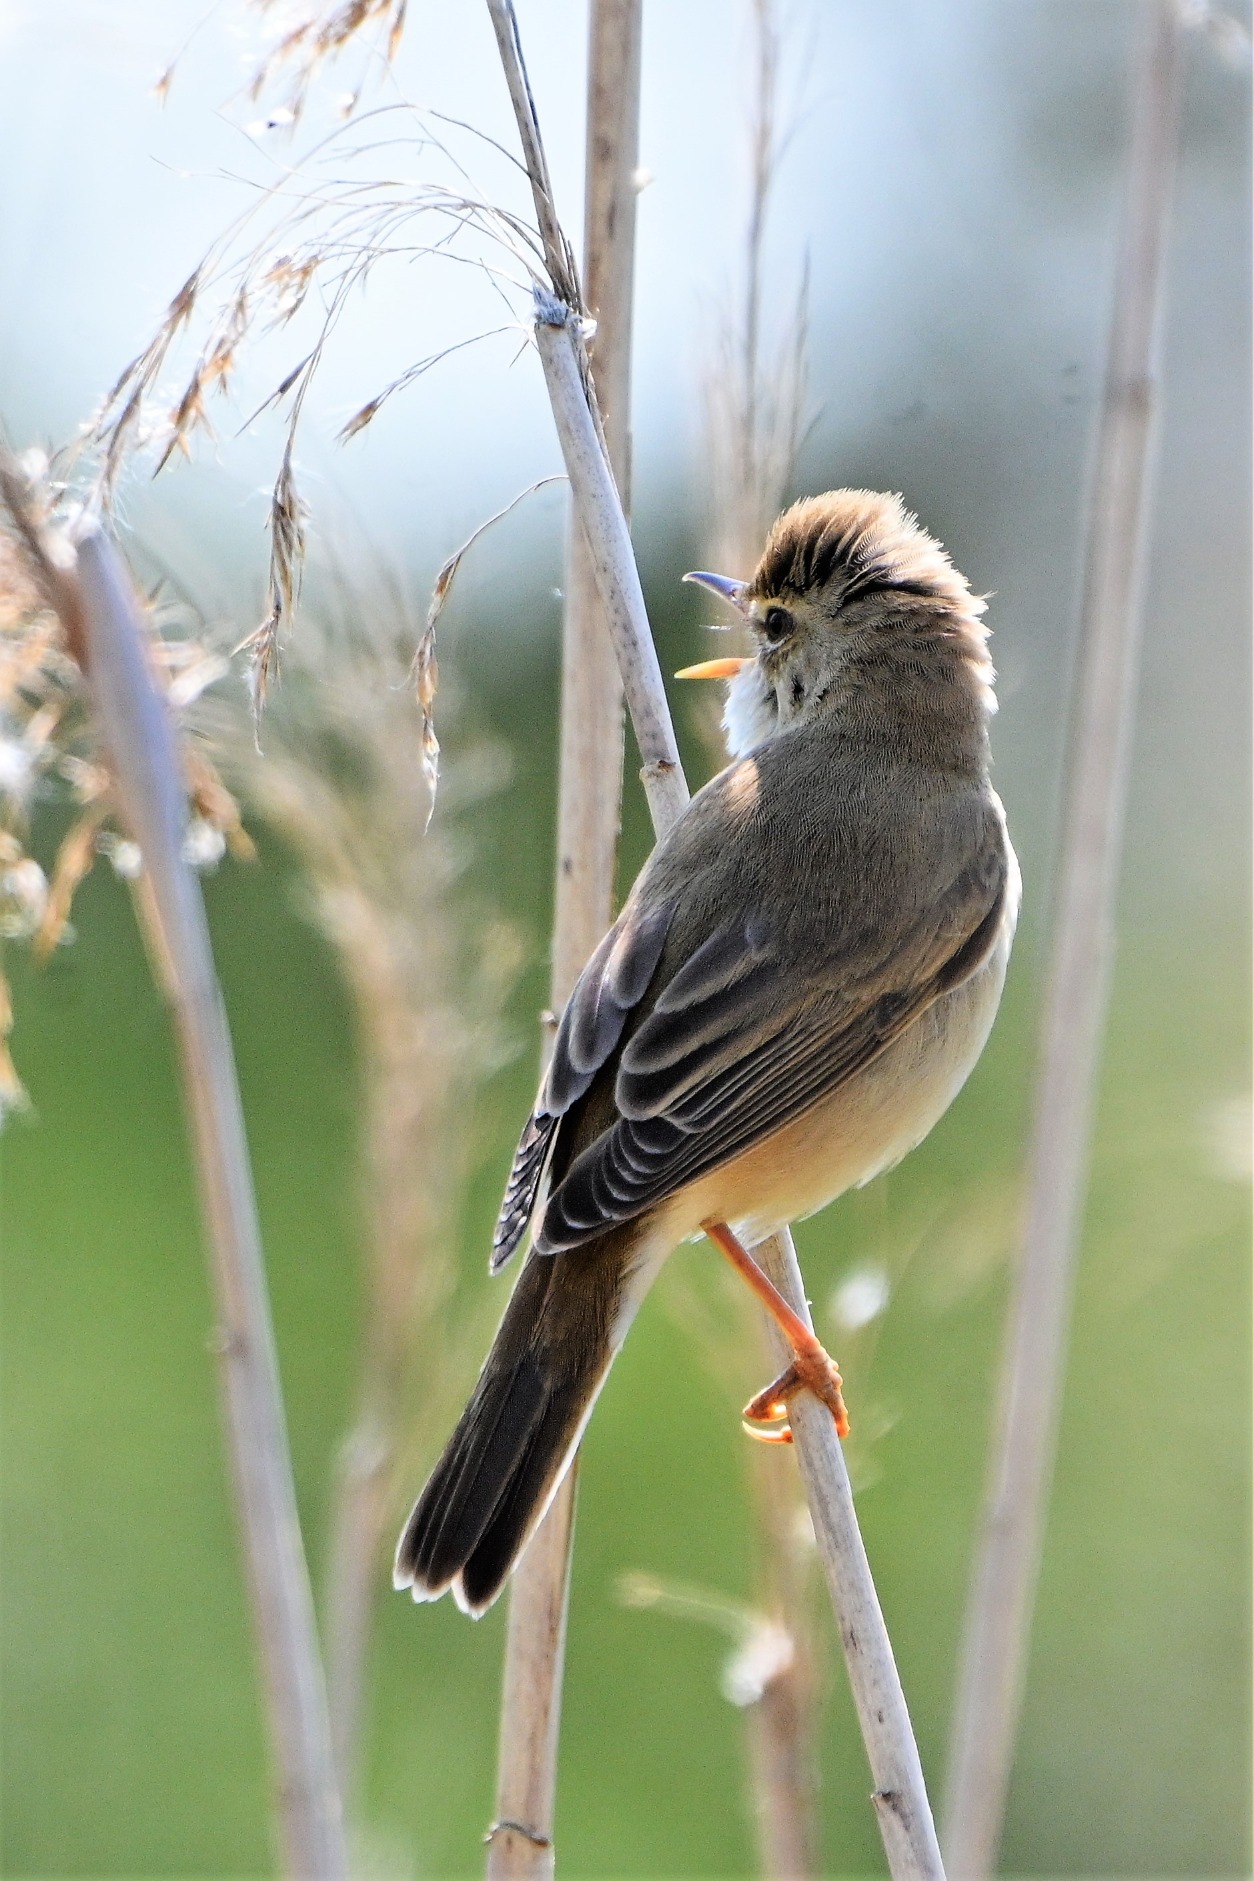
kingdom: Animalia
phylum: Chordata
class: Aves
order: Passeriformes
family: Acrocephalidae
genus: Acrocephalus
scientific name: Acrocephalus palustris
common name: Kærsanger
